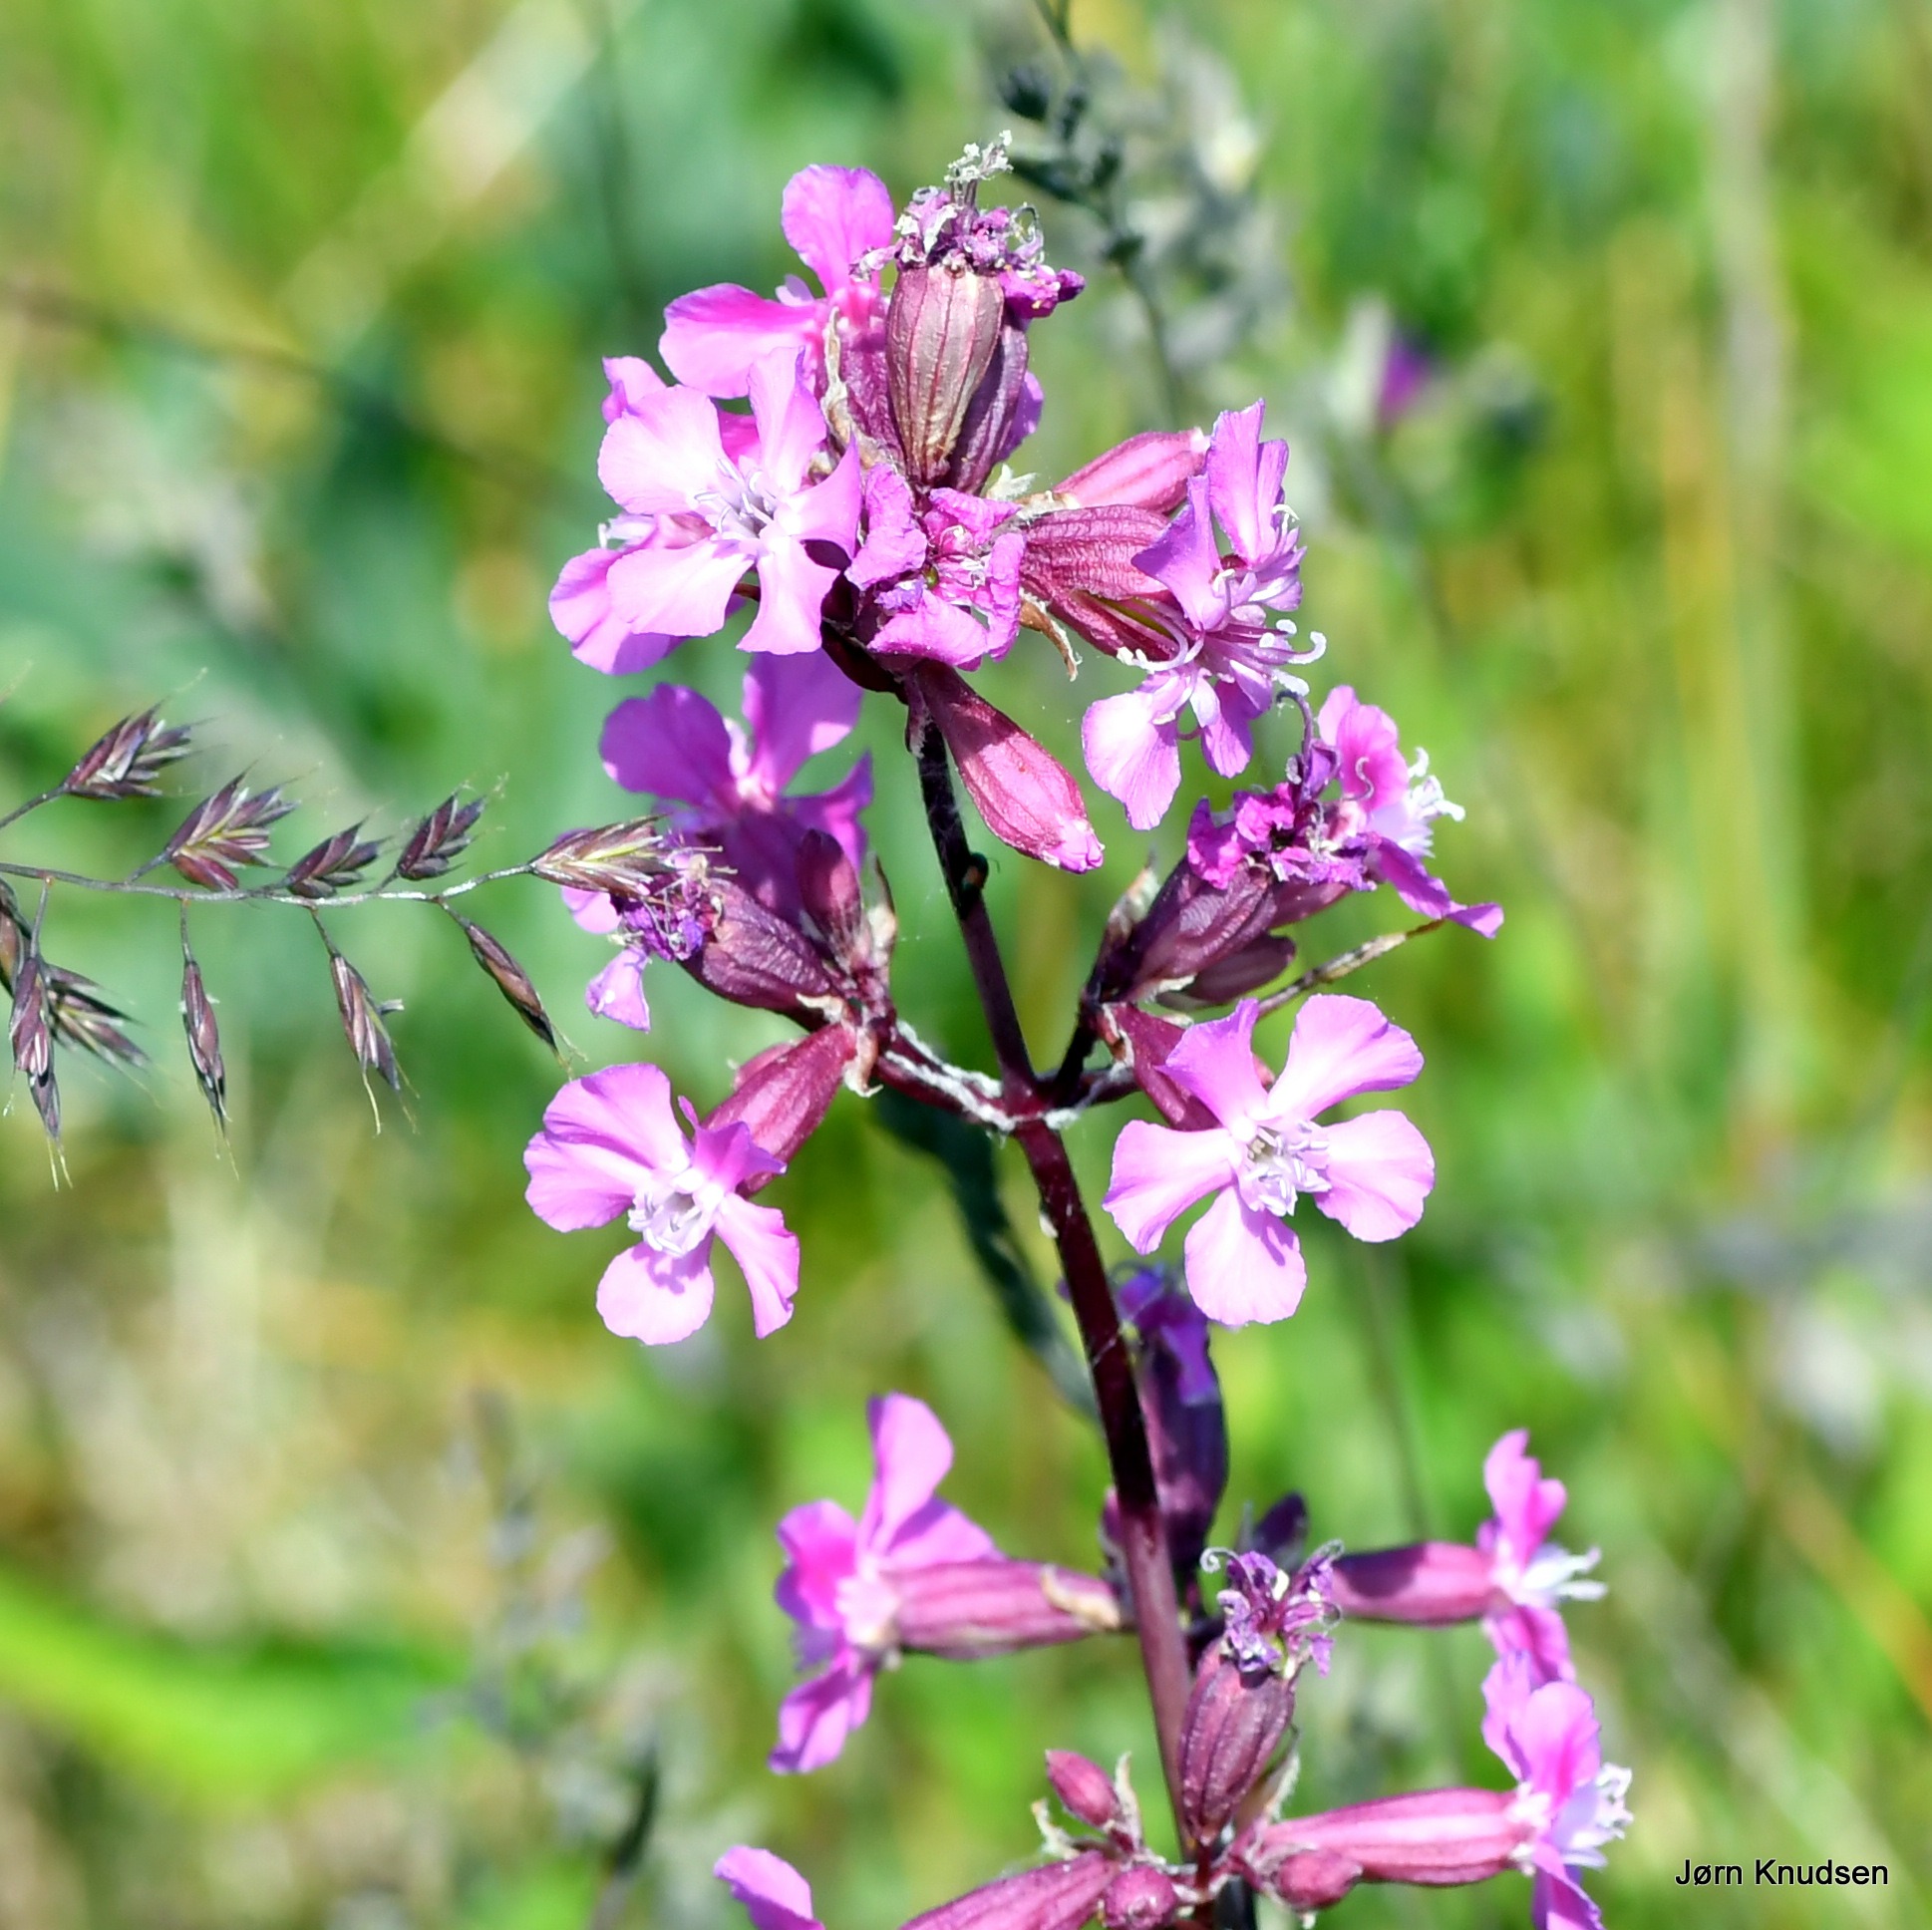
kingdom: Plantae
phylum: Tracheophyta
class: Magnoliopsida
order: Caryophyllales
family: Caryophyllaceae
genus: Viscaria
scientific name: Viscaria vulgaris
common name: Tjærenellike
